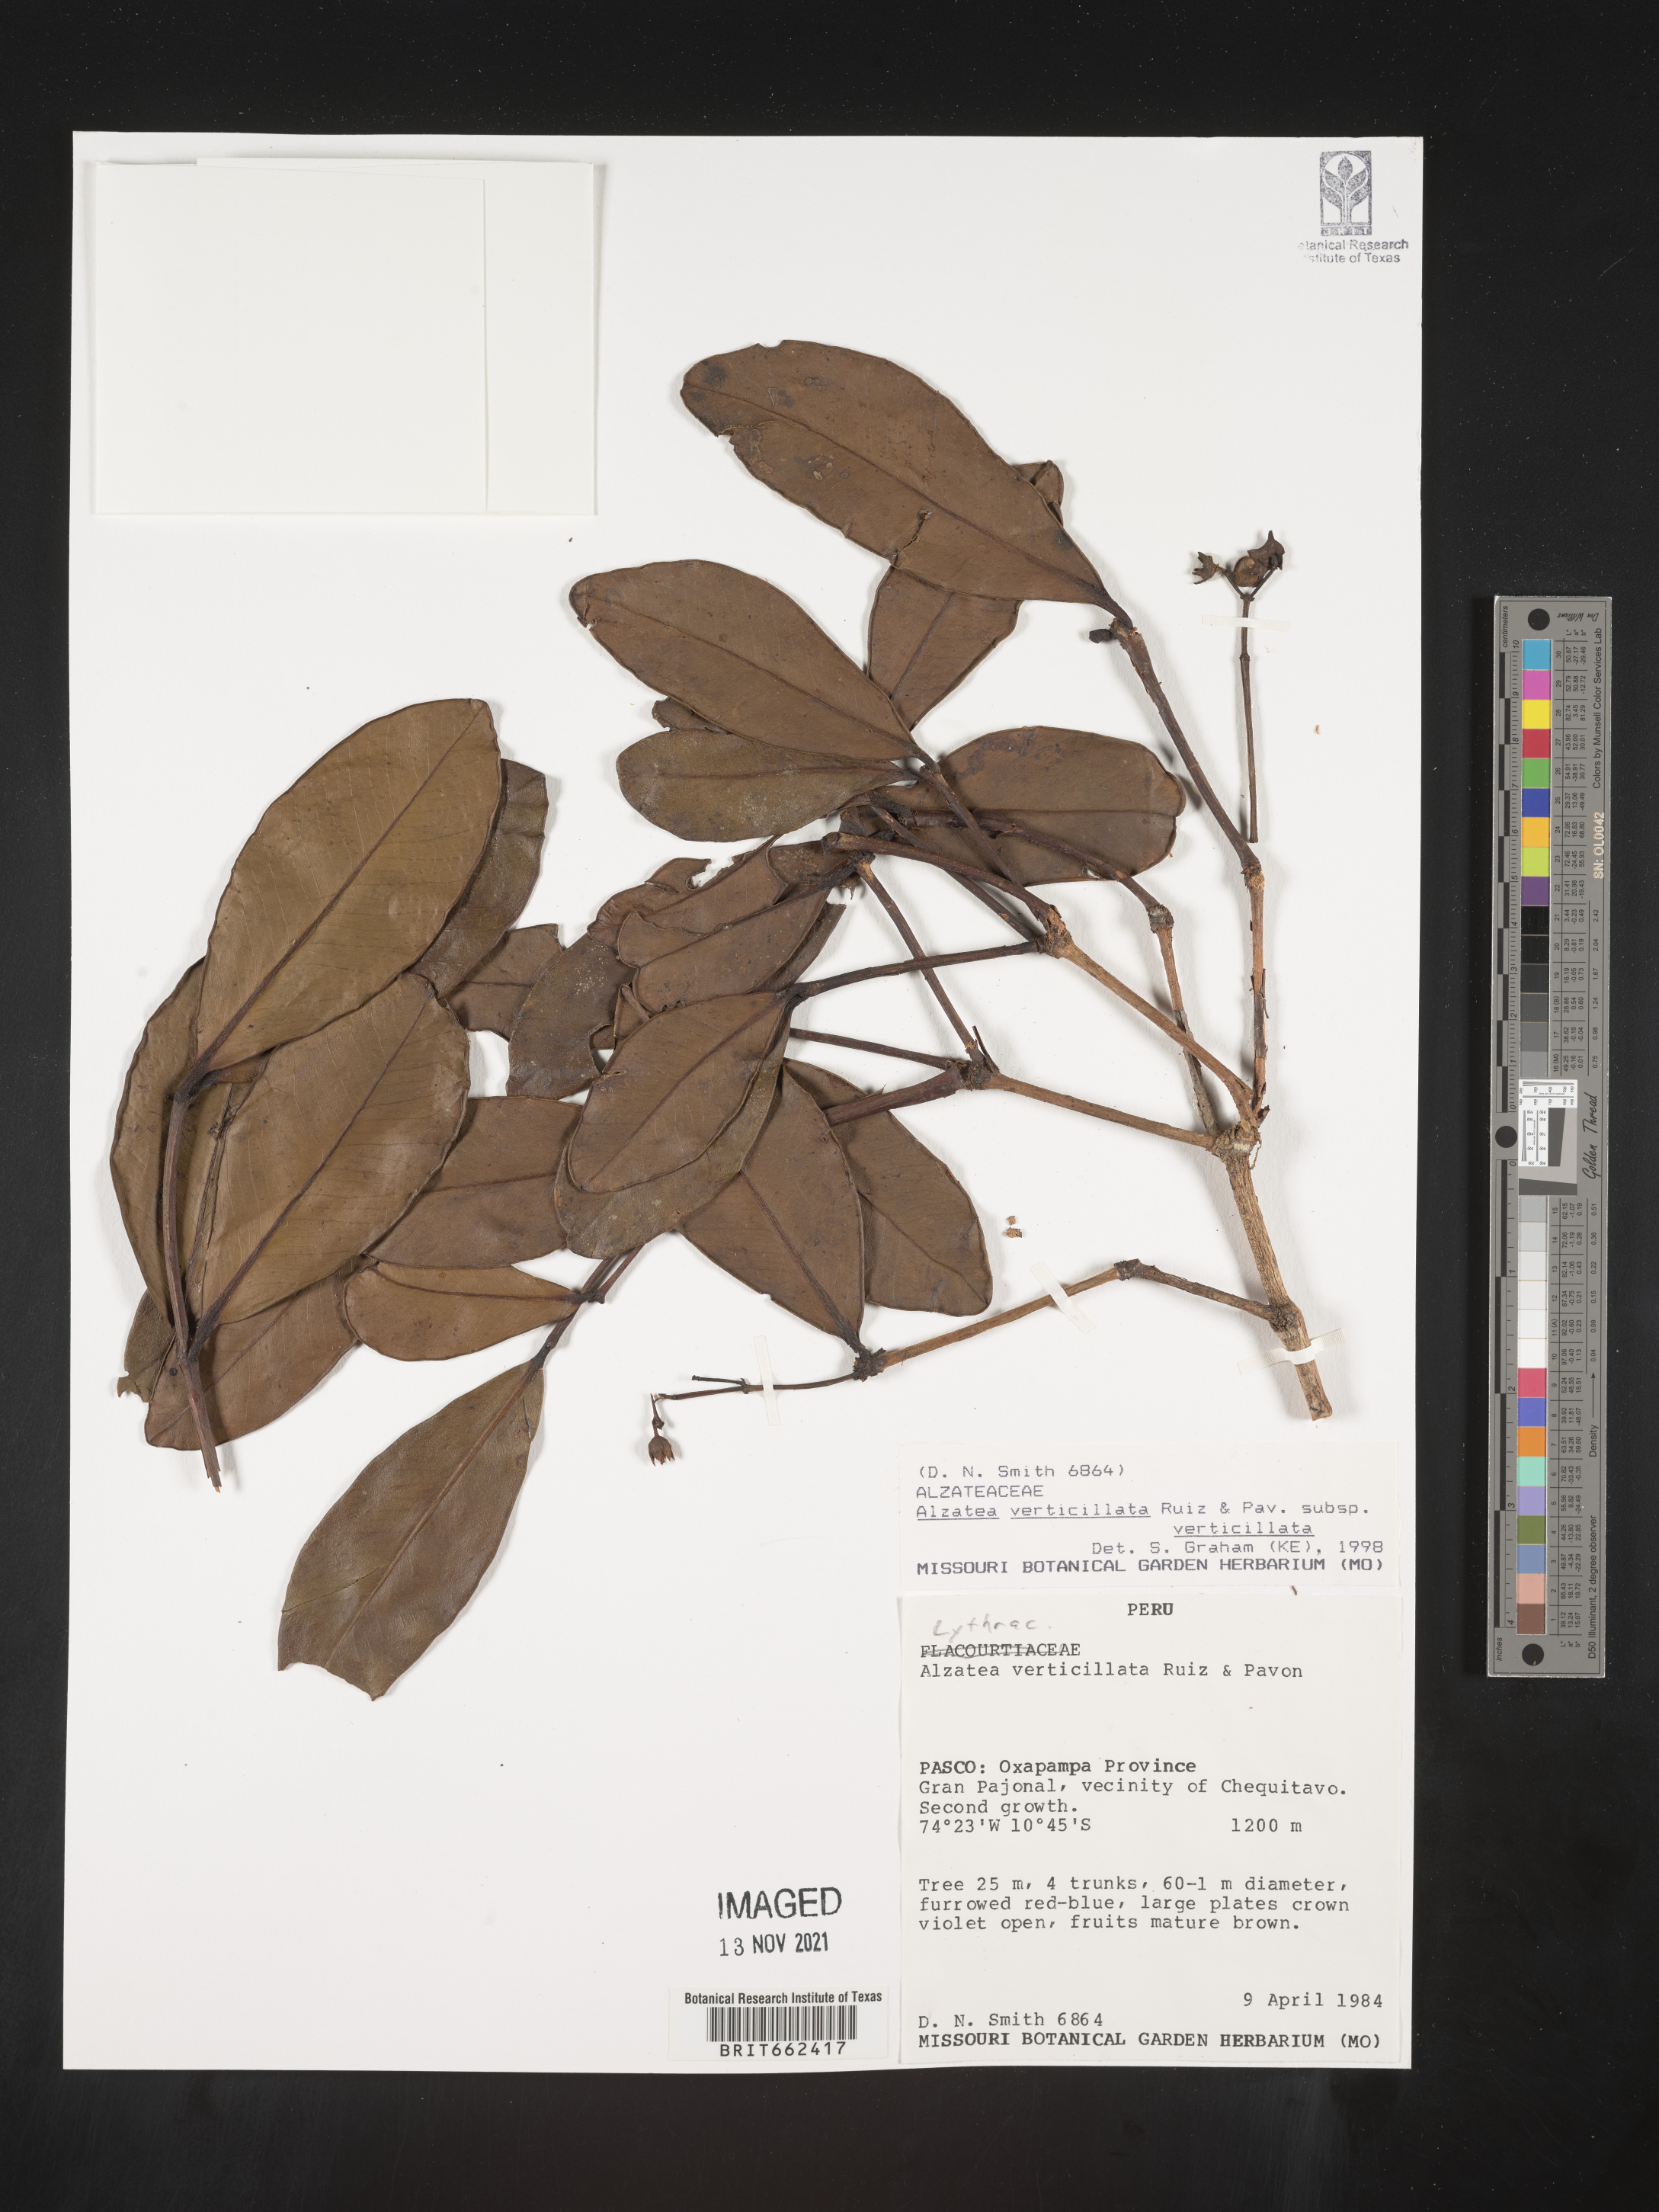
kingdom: Plantae
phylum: Tracheophyta
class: Magnoliopsida
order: Myrtales
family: Alzateaceae
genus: Alzatea
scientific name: Alzatea
